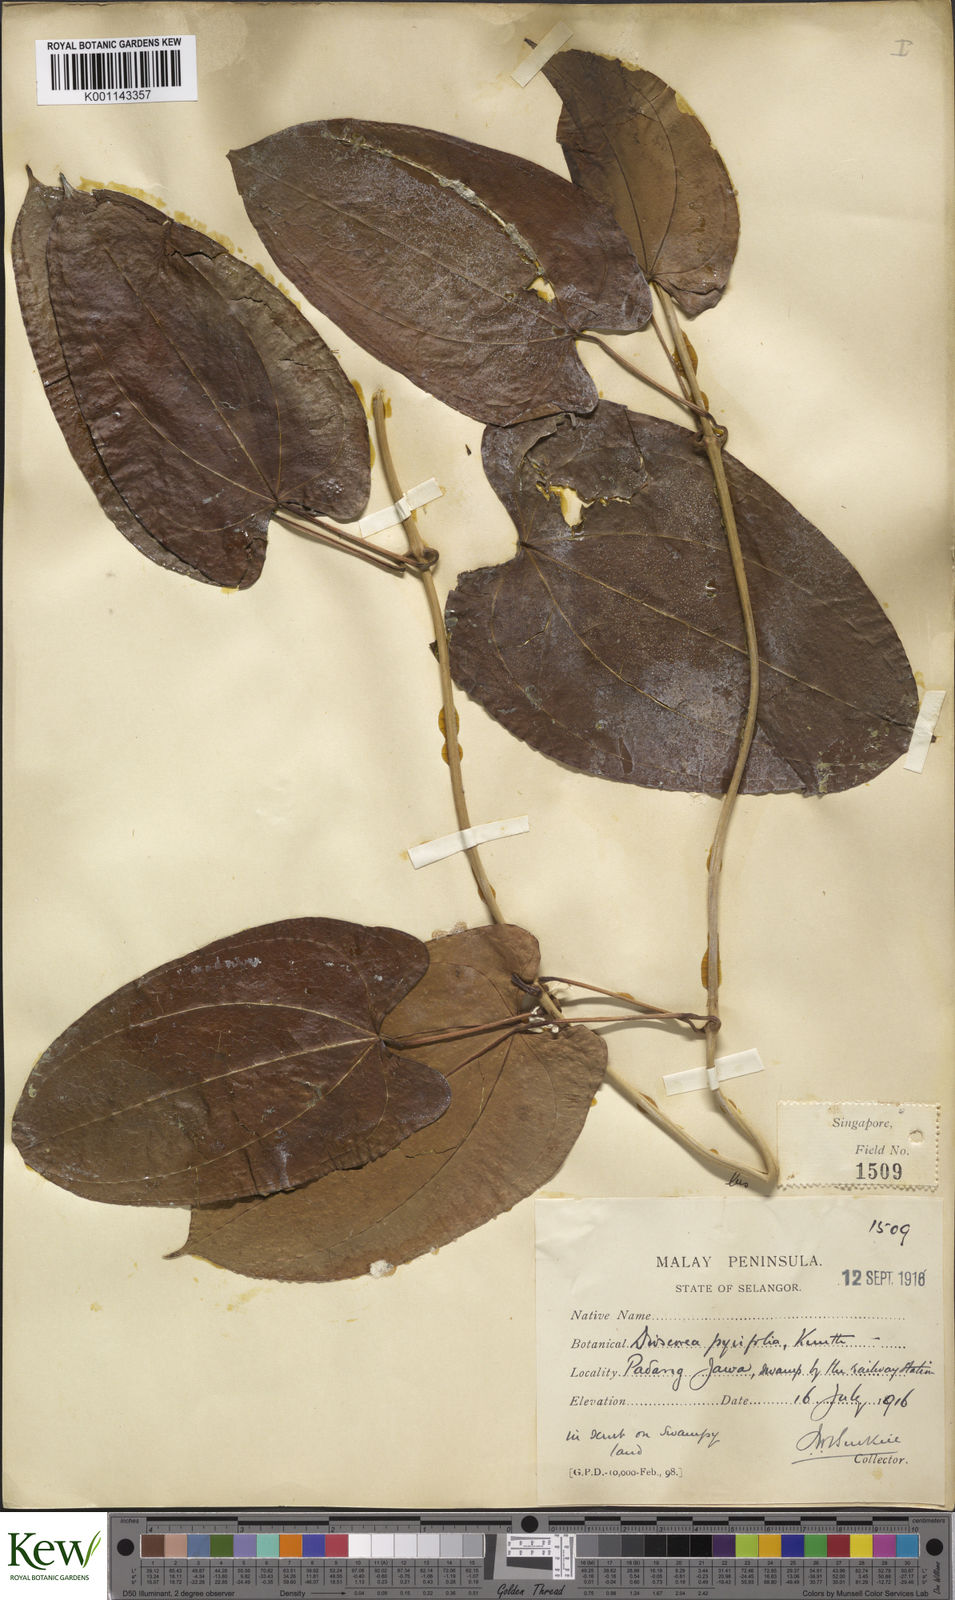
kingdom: Plantae
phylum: Tracheophyta
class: Liliopsida
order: Dioscoreales
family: Dioscoreaceae
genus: Dioscorea
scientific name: Dioscorea pyrifolia
